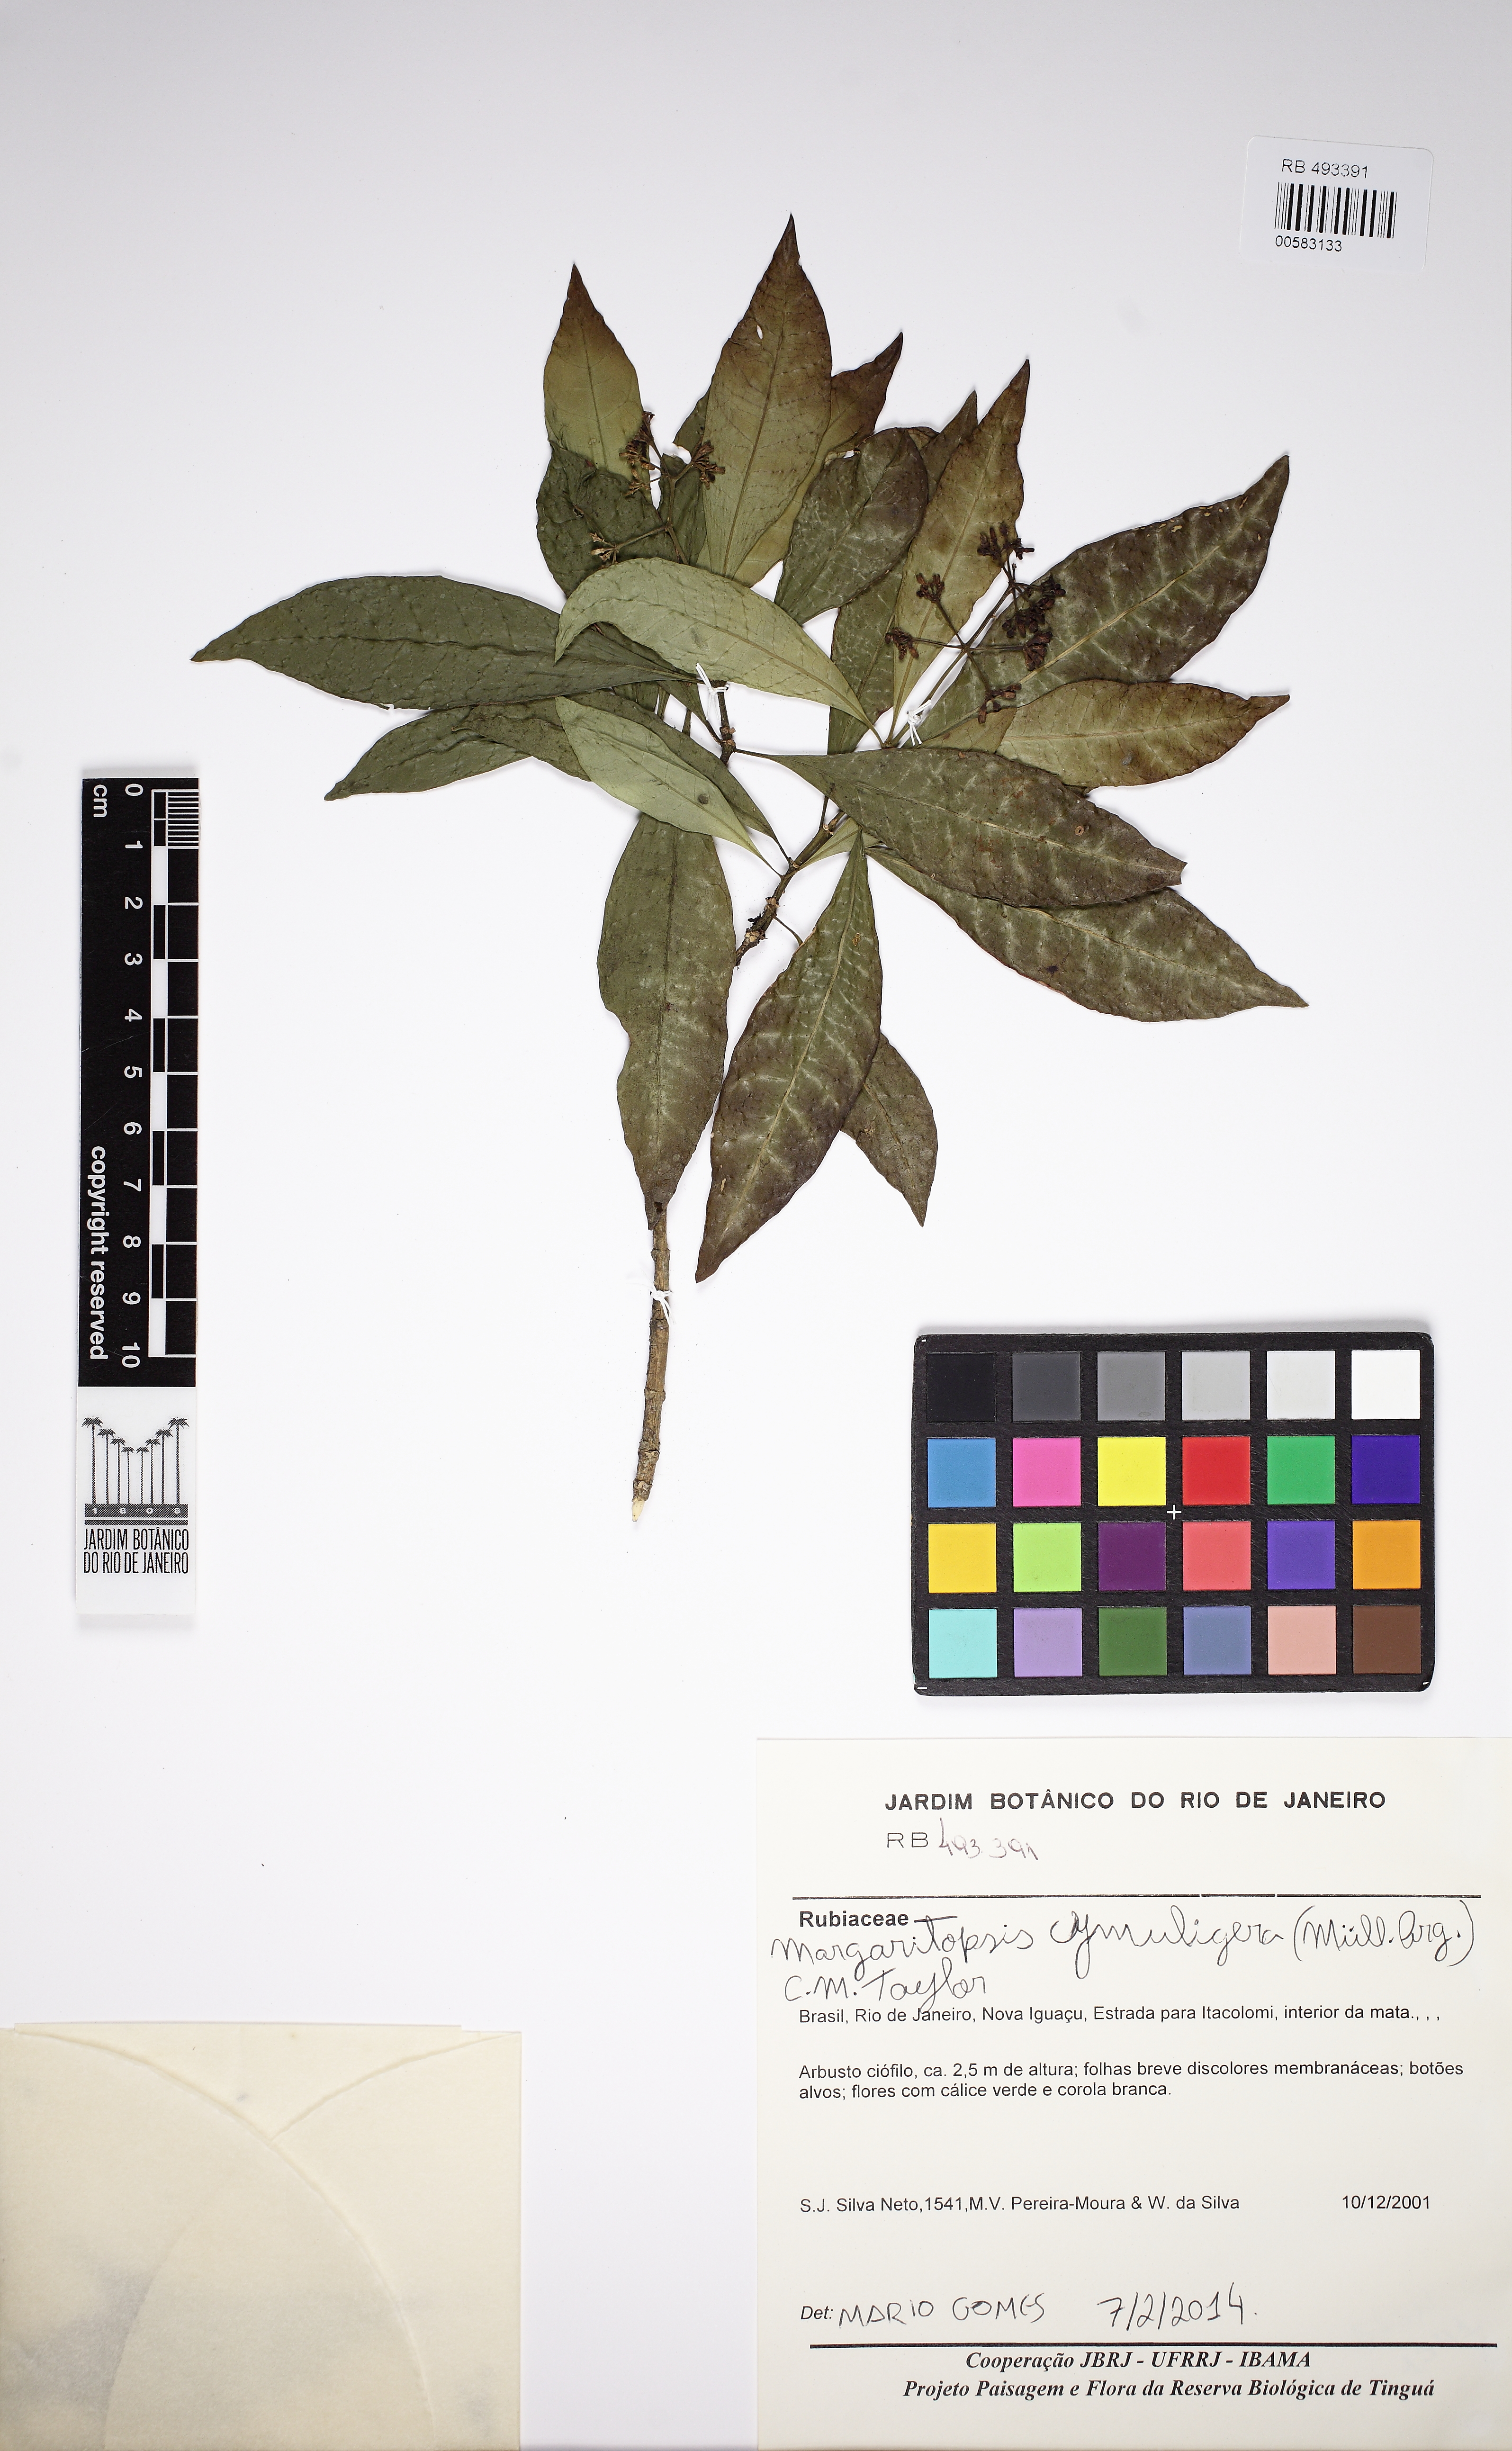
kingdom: Plantae
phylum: Tracheophyta
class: Magnoliopsida
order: Gentianales
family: Rubiaceae
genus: Eumachia
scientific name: Eumachia cymuligera
